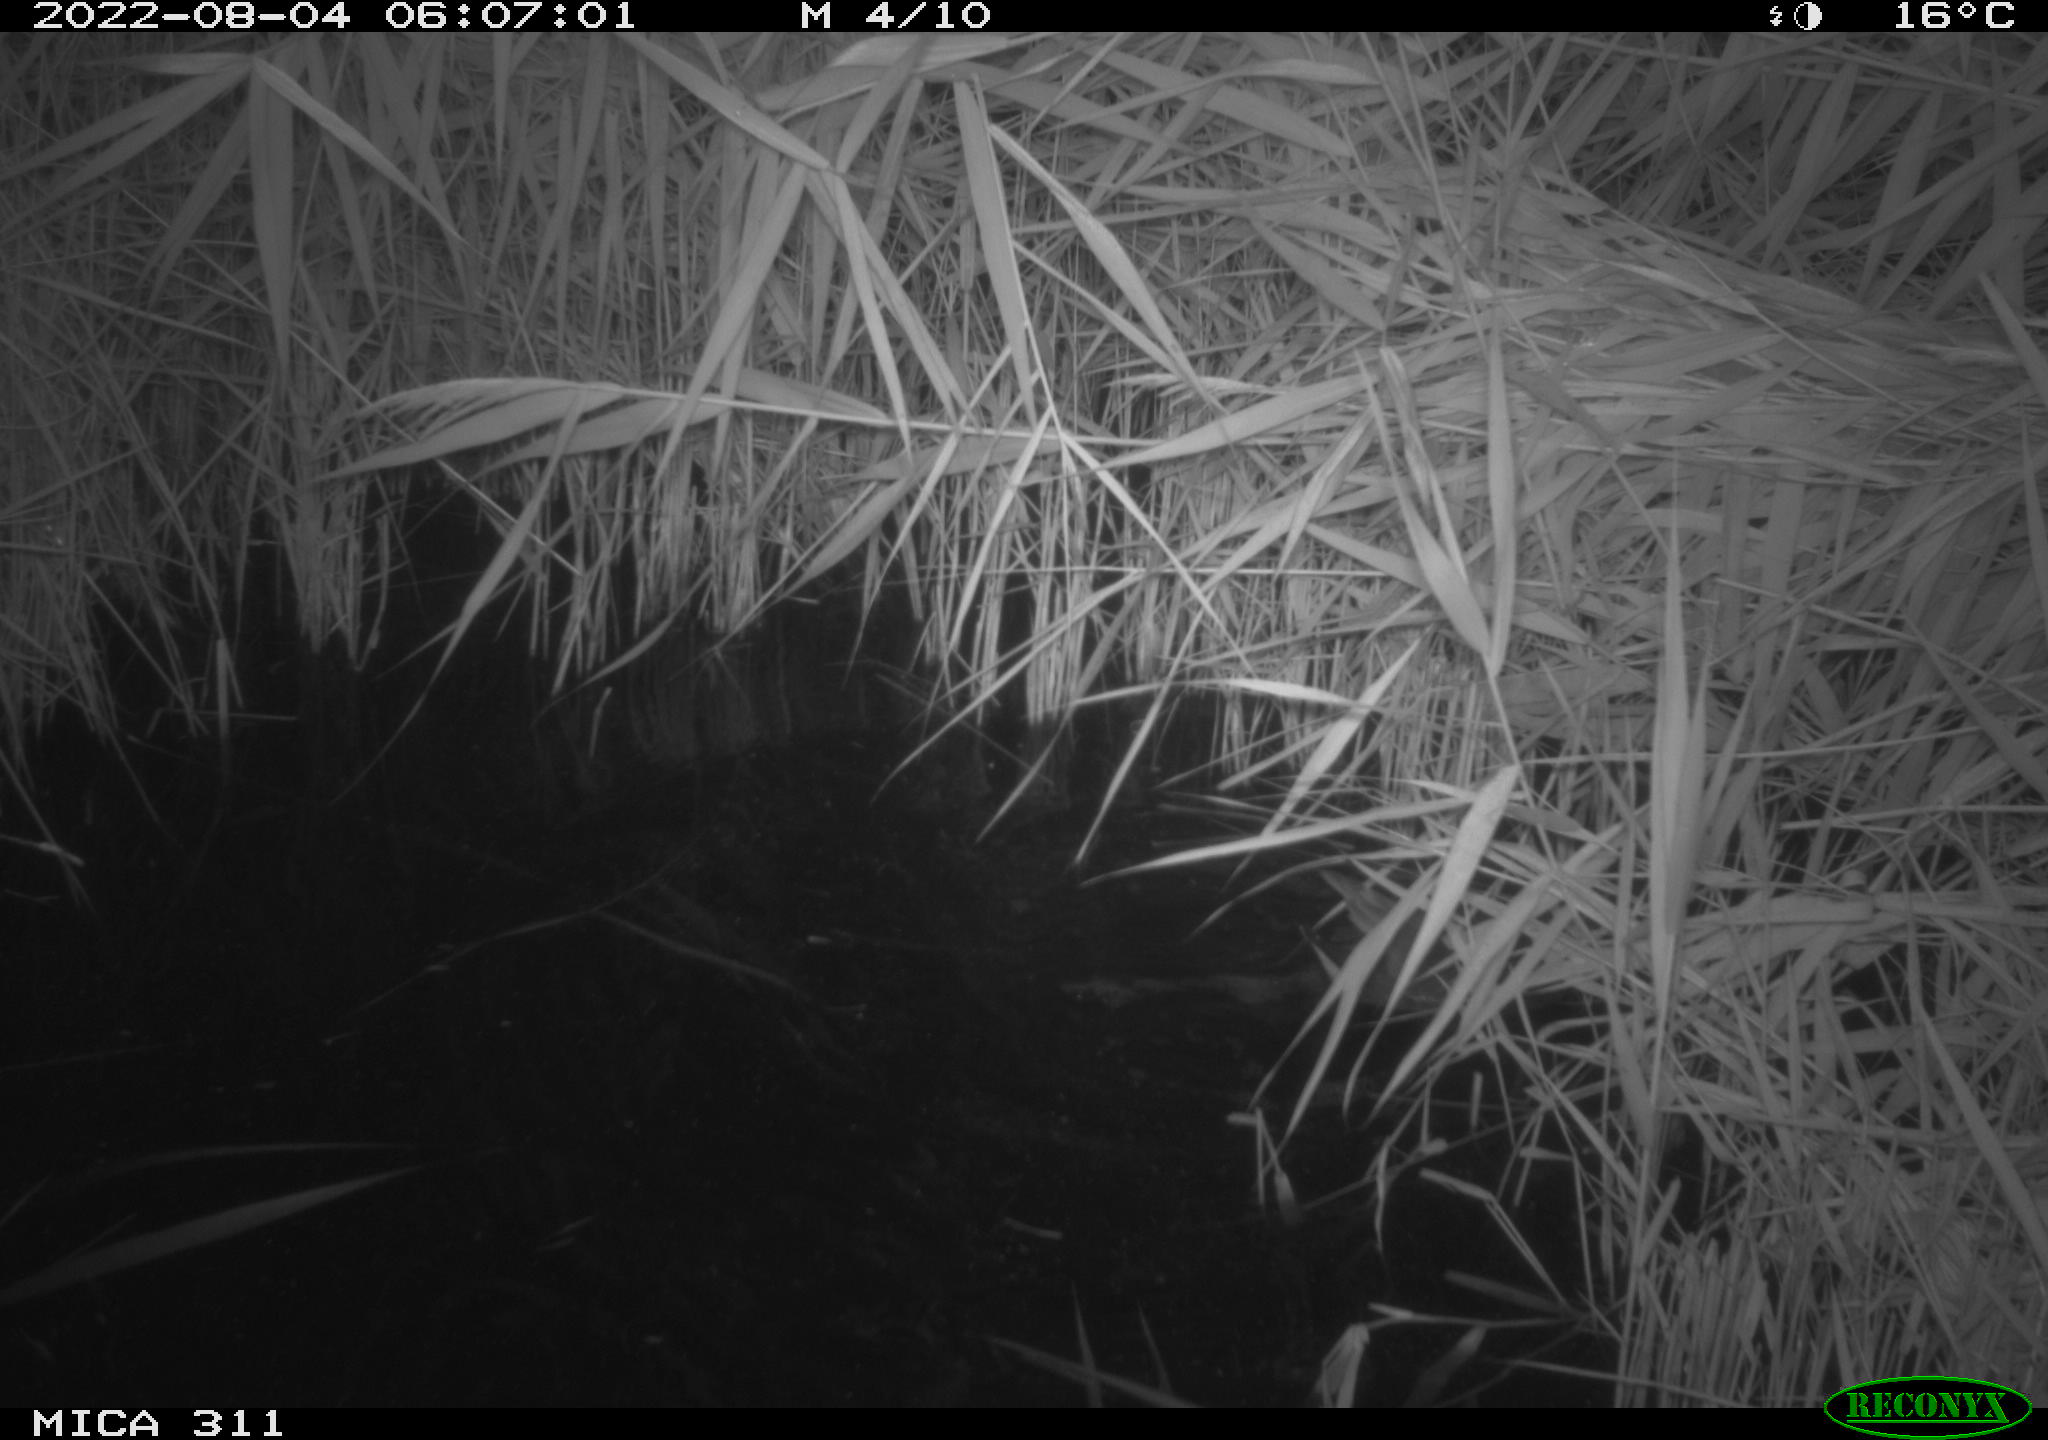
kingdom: Animalia
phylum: Chordata
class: Aves
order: Gruiformes
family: Rallidae
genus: Gallinula
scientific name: Gallinula chloropus
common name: Common moorhen
